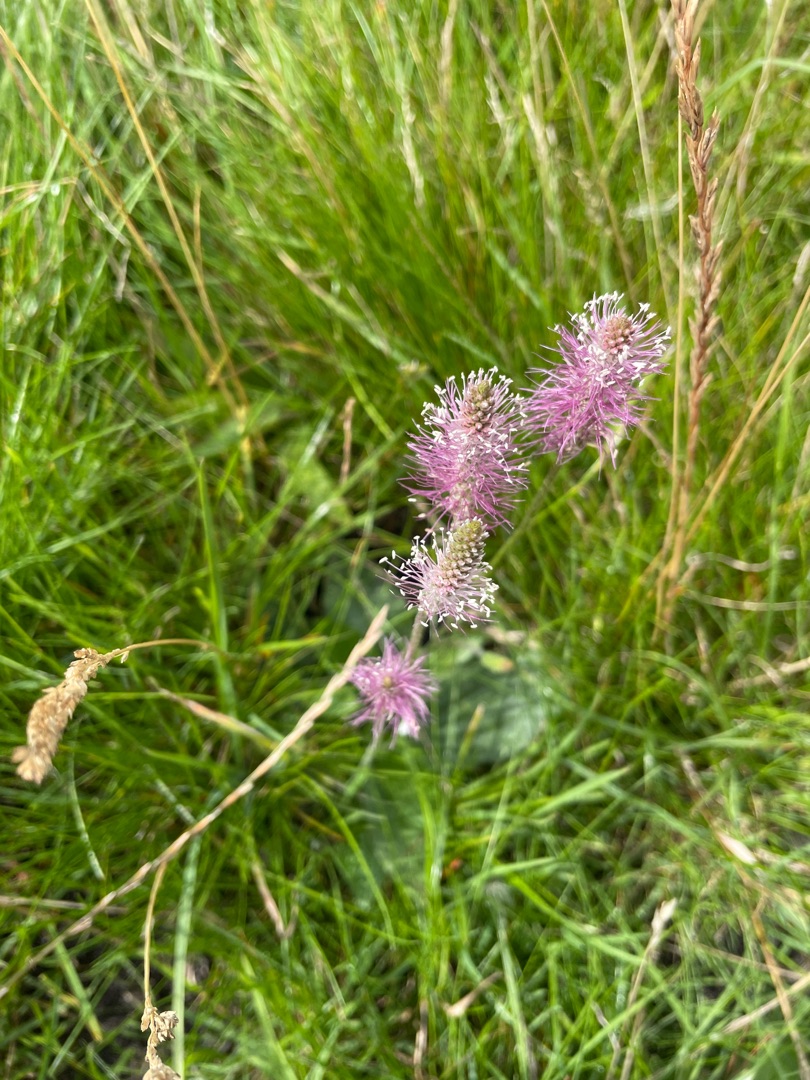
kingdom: Plantae
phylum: Tracheophyta
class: Magnoliopsida
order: Lamiales
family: Plantaginaceae
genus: Plantago
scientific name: Plantago media
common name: Dunet vejbred
